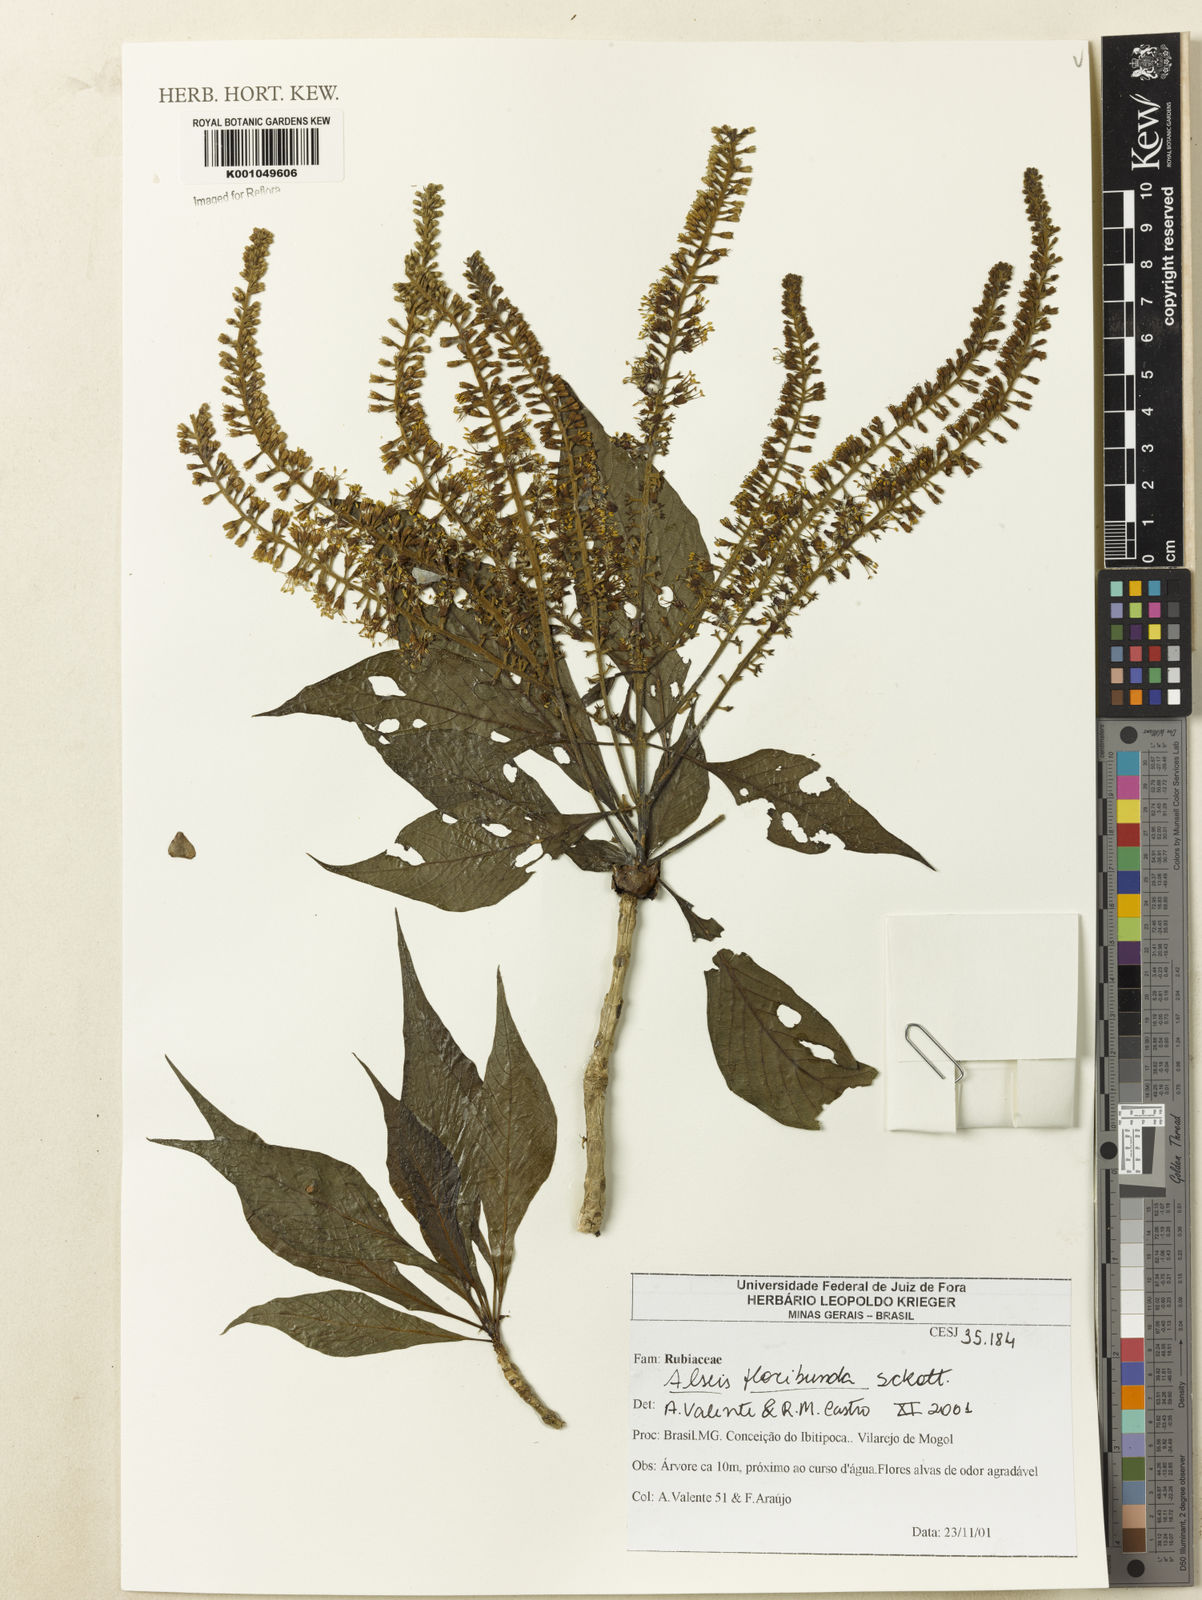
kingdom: Plantae
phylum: Tracheophyta
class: Magnoliopsida
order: Gentianales
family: Rubiaceae
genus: Alseis
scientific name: Alseis floribunda
